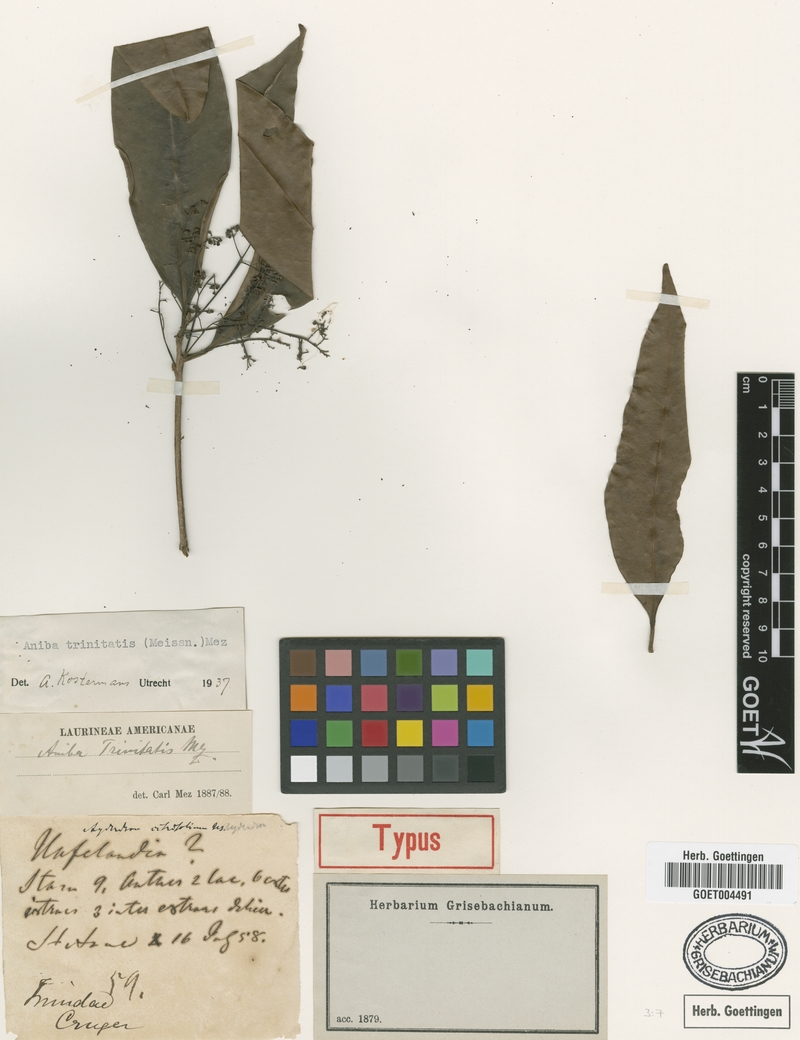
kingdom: Plantae
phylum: Tracheophyta
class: Magnoliopsida
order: Laurales
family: Lauraceae
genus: Aniba
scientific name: Aniba citrifolia
